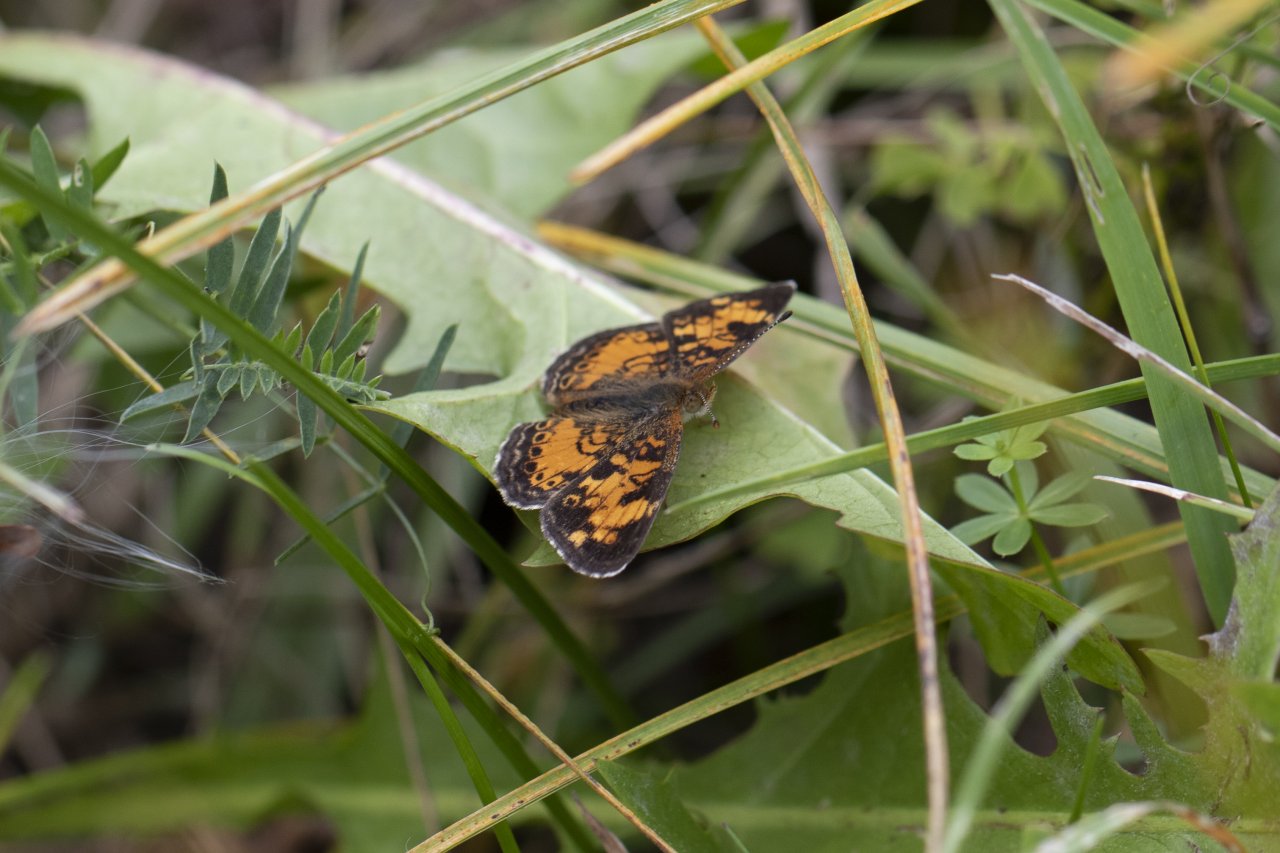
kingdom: Animalia
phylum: Arthropoda
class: Insecta
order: Lepidoptera
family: Nymphalidae
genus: Phyciodes
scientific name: Phyciodes
